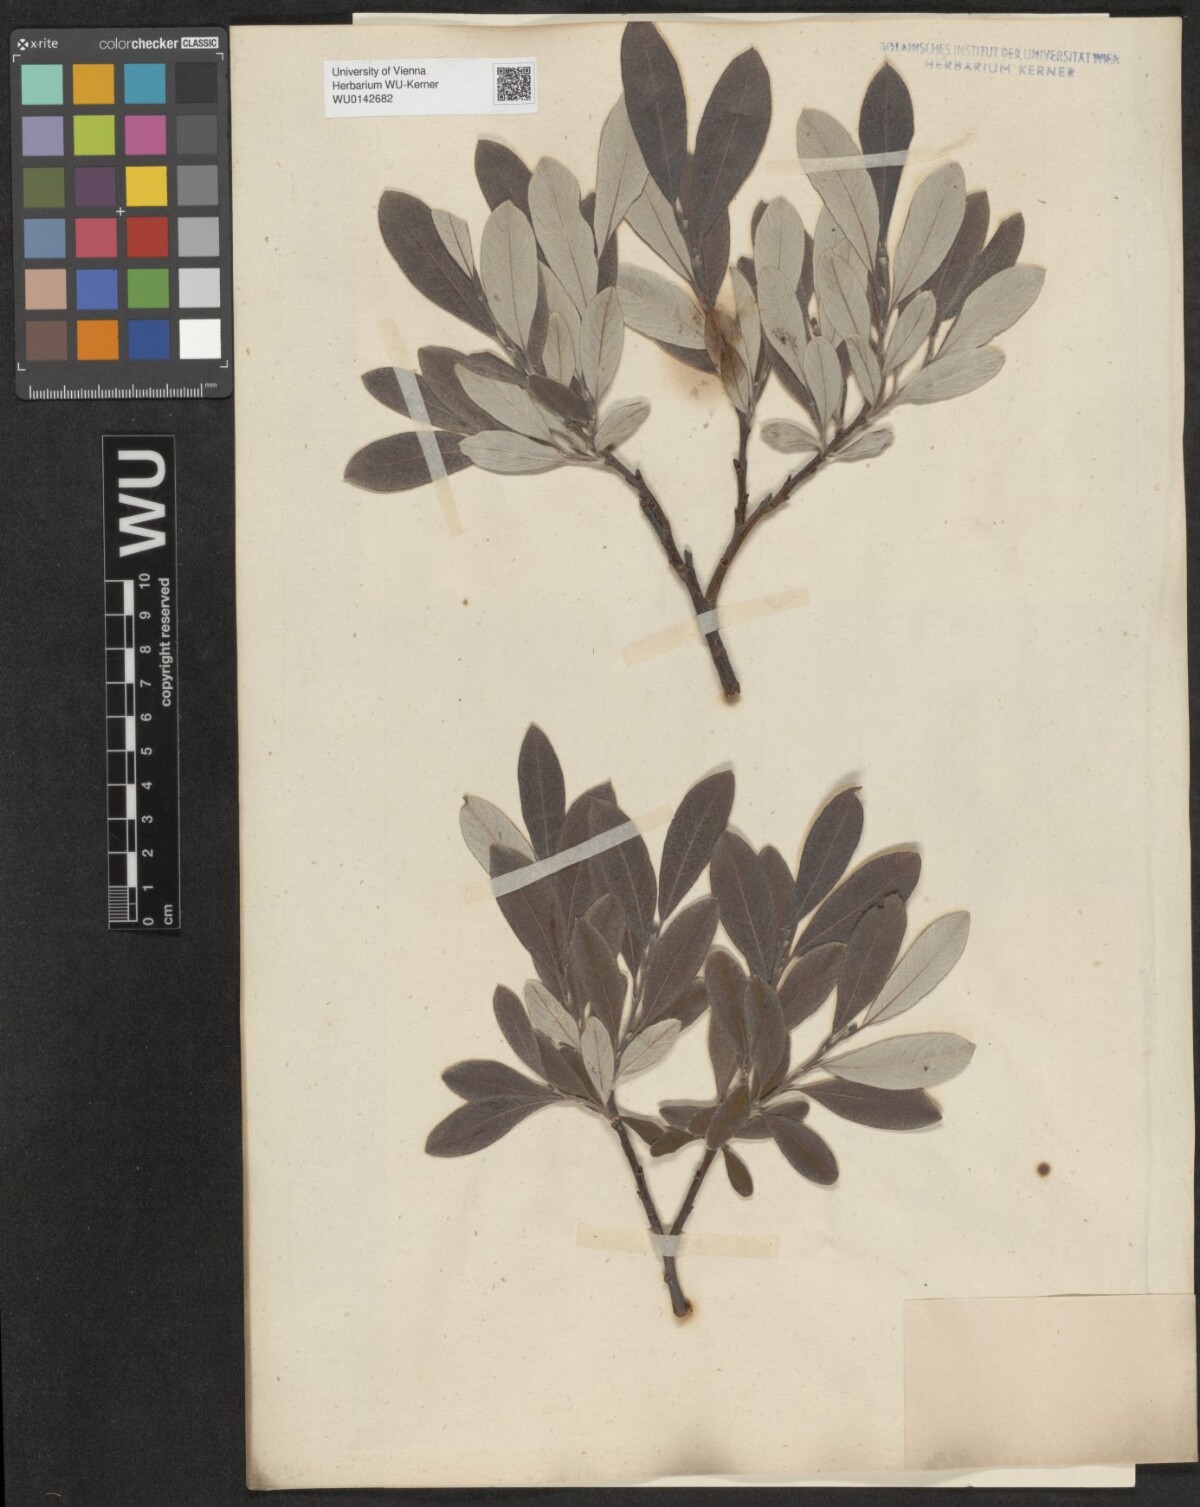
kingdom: Plantae
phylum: Tracheophyta
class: Magnoliopsida
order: Malpighiales
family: Salicaceae
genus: Salix
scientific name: Salix helvetica
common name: Swiss willow
